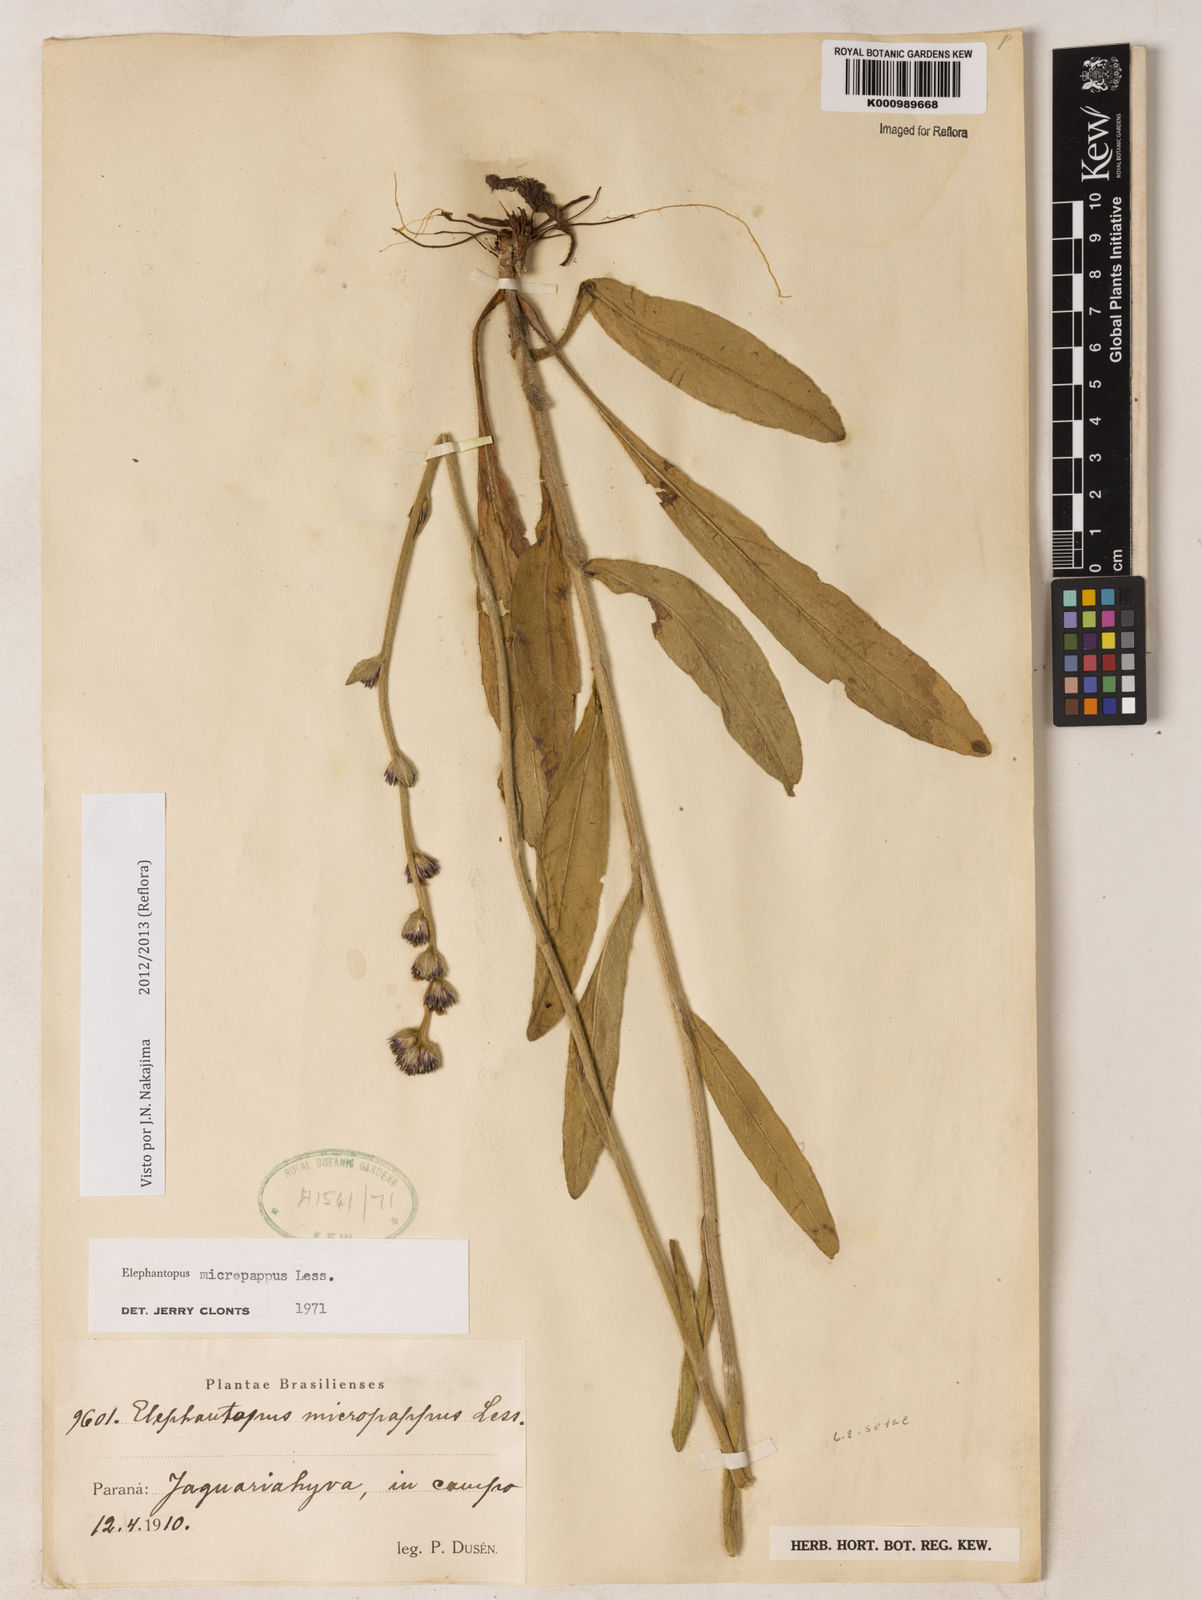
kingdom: Plantae
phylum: Tracheophyta
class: Magnoliopsida
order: Asterales
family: Asteraceae
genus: Elephantopus
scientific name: Elephantopus micropappus
